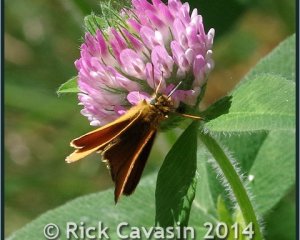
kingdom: Animalia
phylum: Arthropoda
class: Insecta
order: Lepidoptera
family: Hesperiidae
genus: Thymelicus
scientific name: Thymelicus lineola
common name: European Skipper
